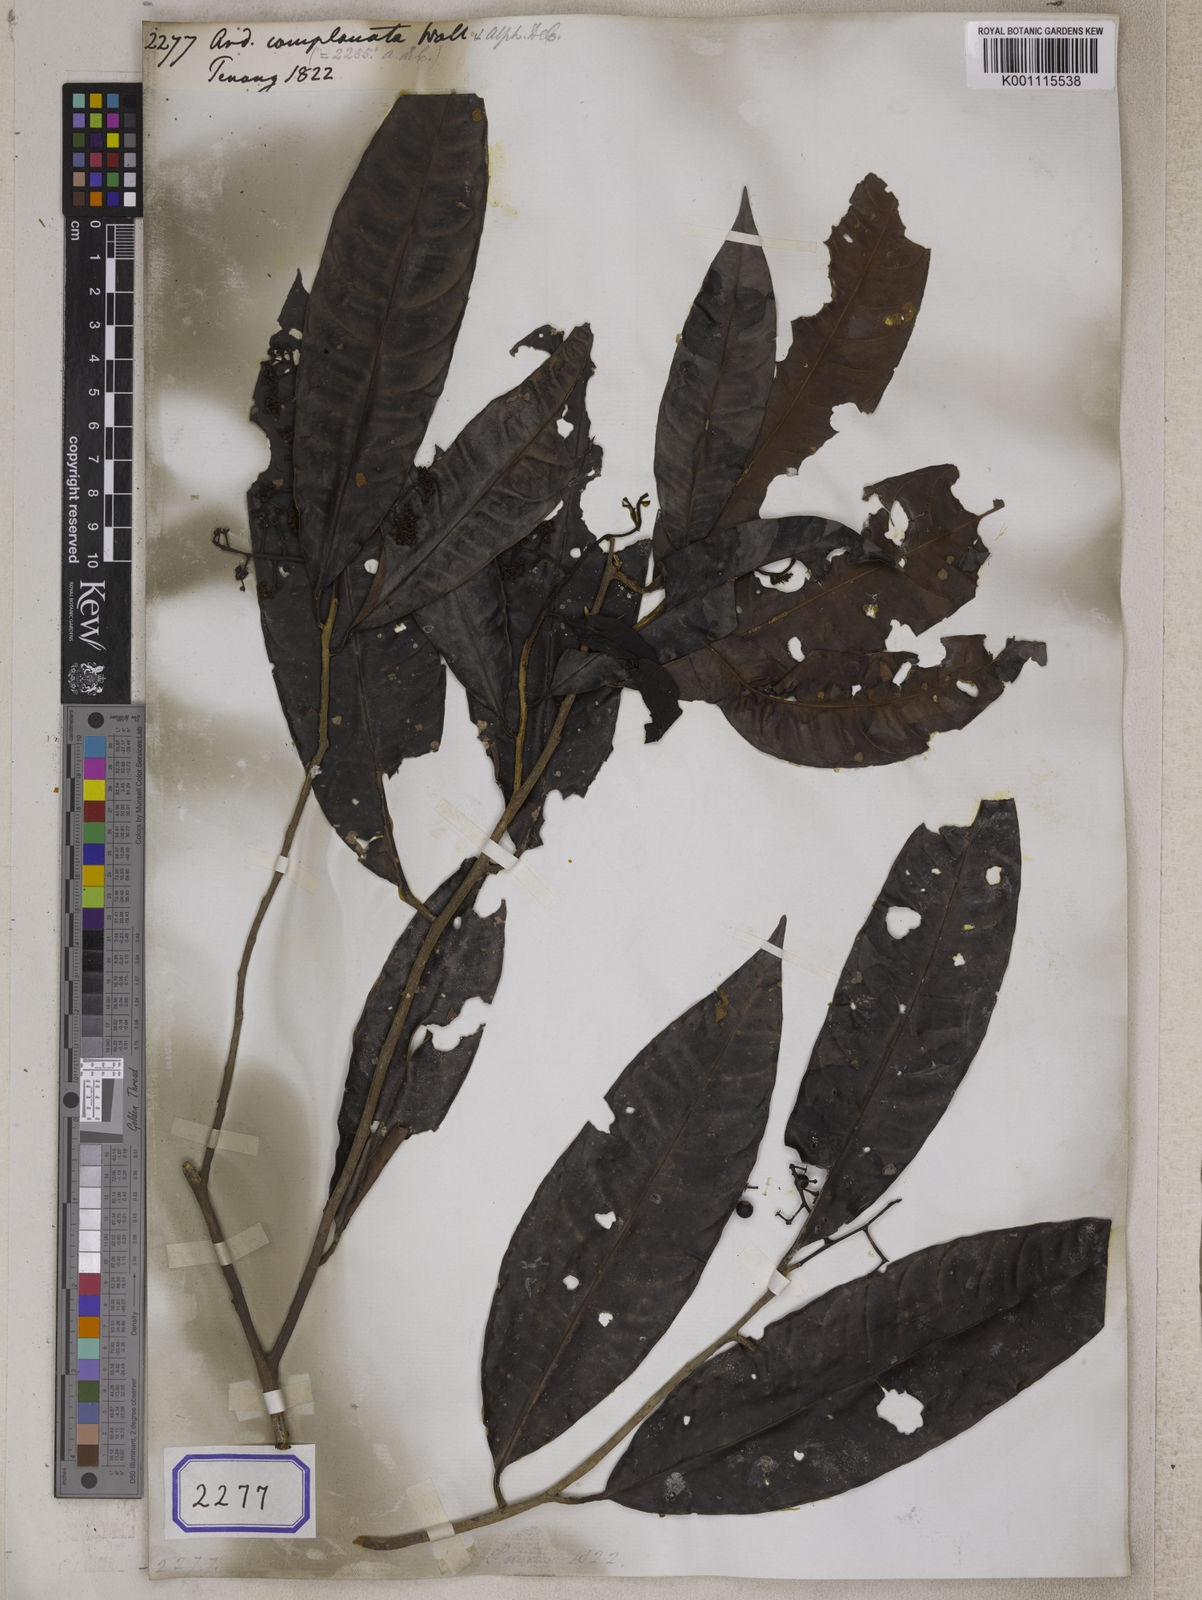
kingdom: Plantae
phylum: Tracheophyta
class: Magnoliopsida
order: Ericales
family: Primulaceae
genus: Ardisia
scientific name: Ardisia complanata
